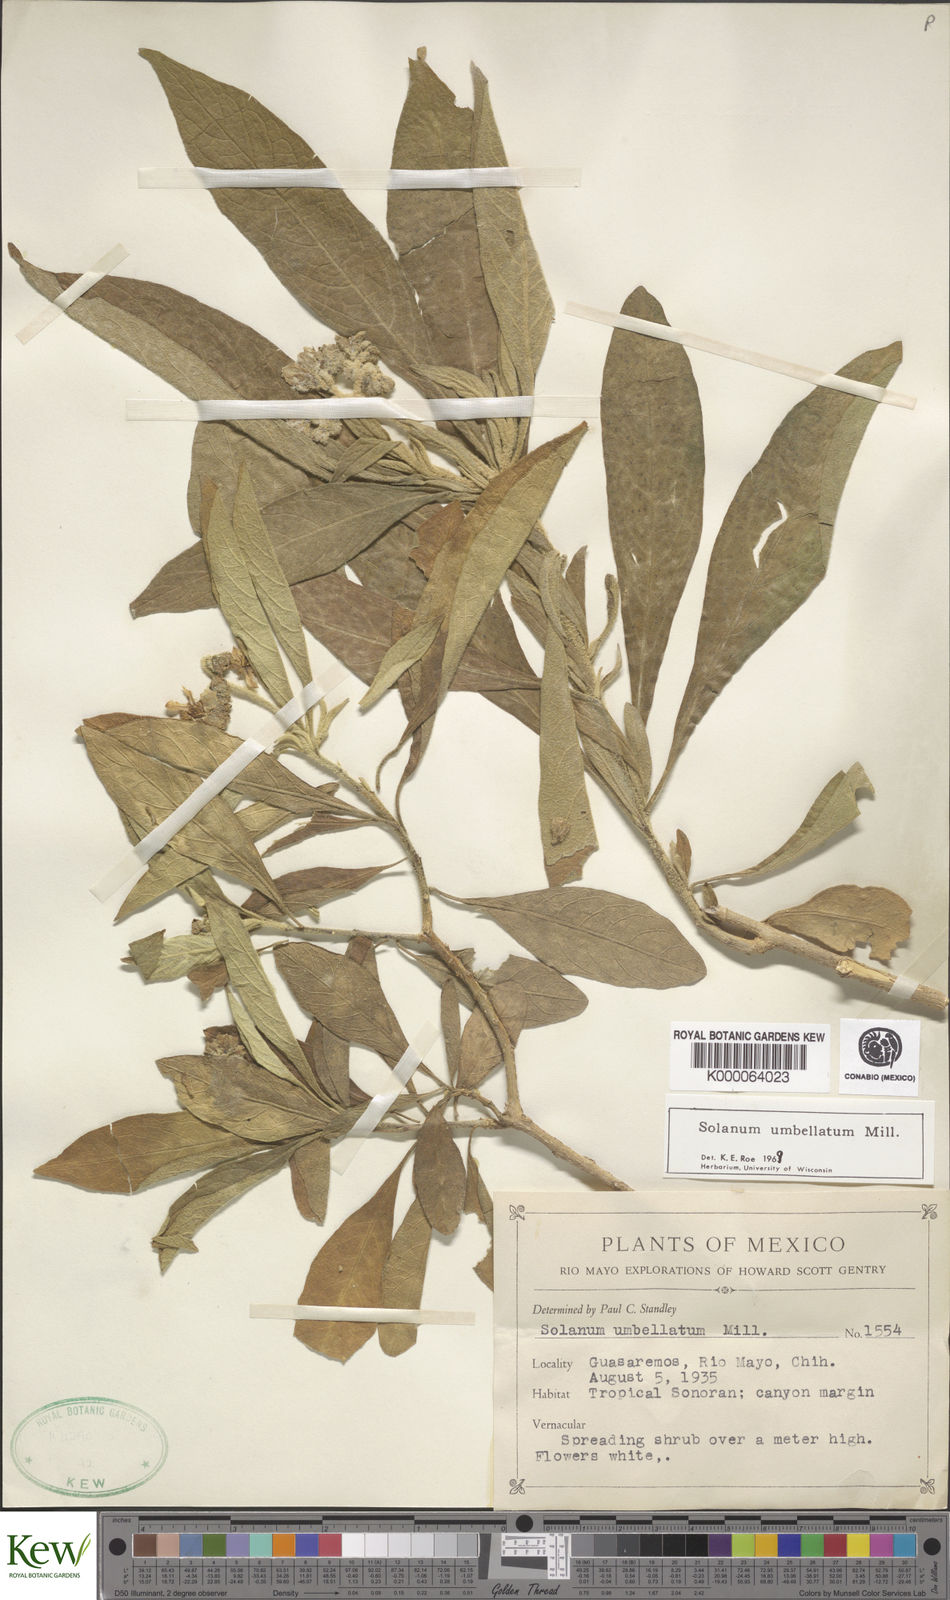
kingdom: Plantae
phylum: Tracheophyta
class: Magnoliopsida
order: Solanales
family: Solanaceae
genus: Solanum
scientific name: Solanum umbellatum
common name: Nightshade
